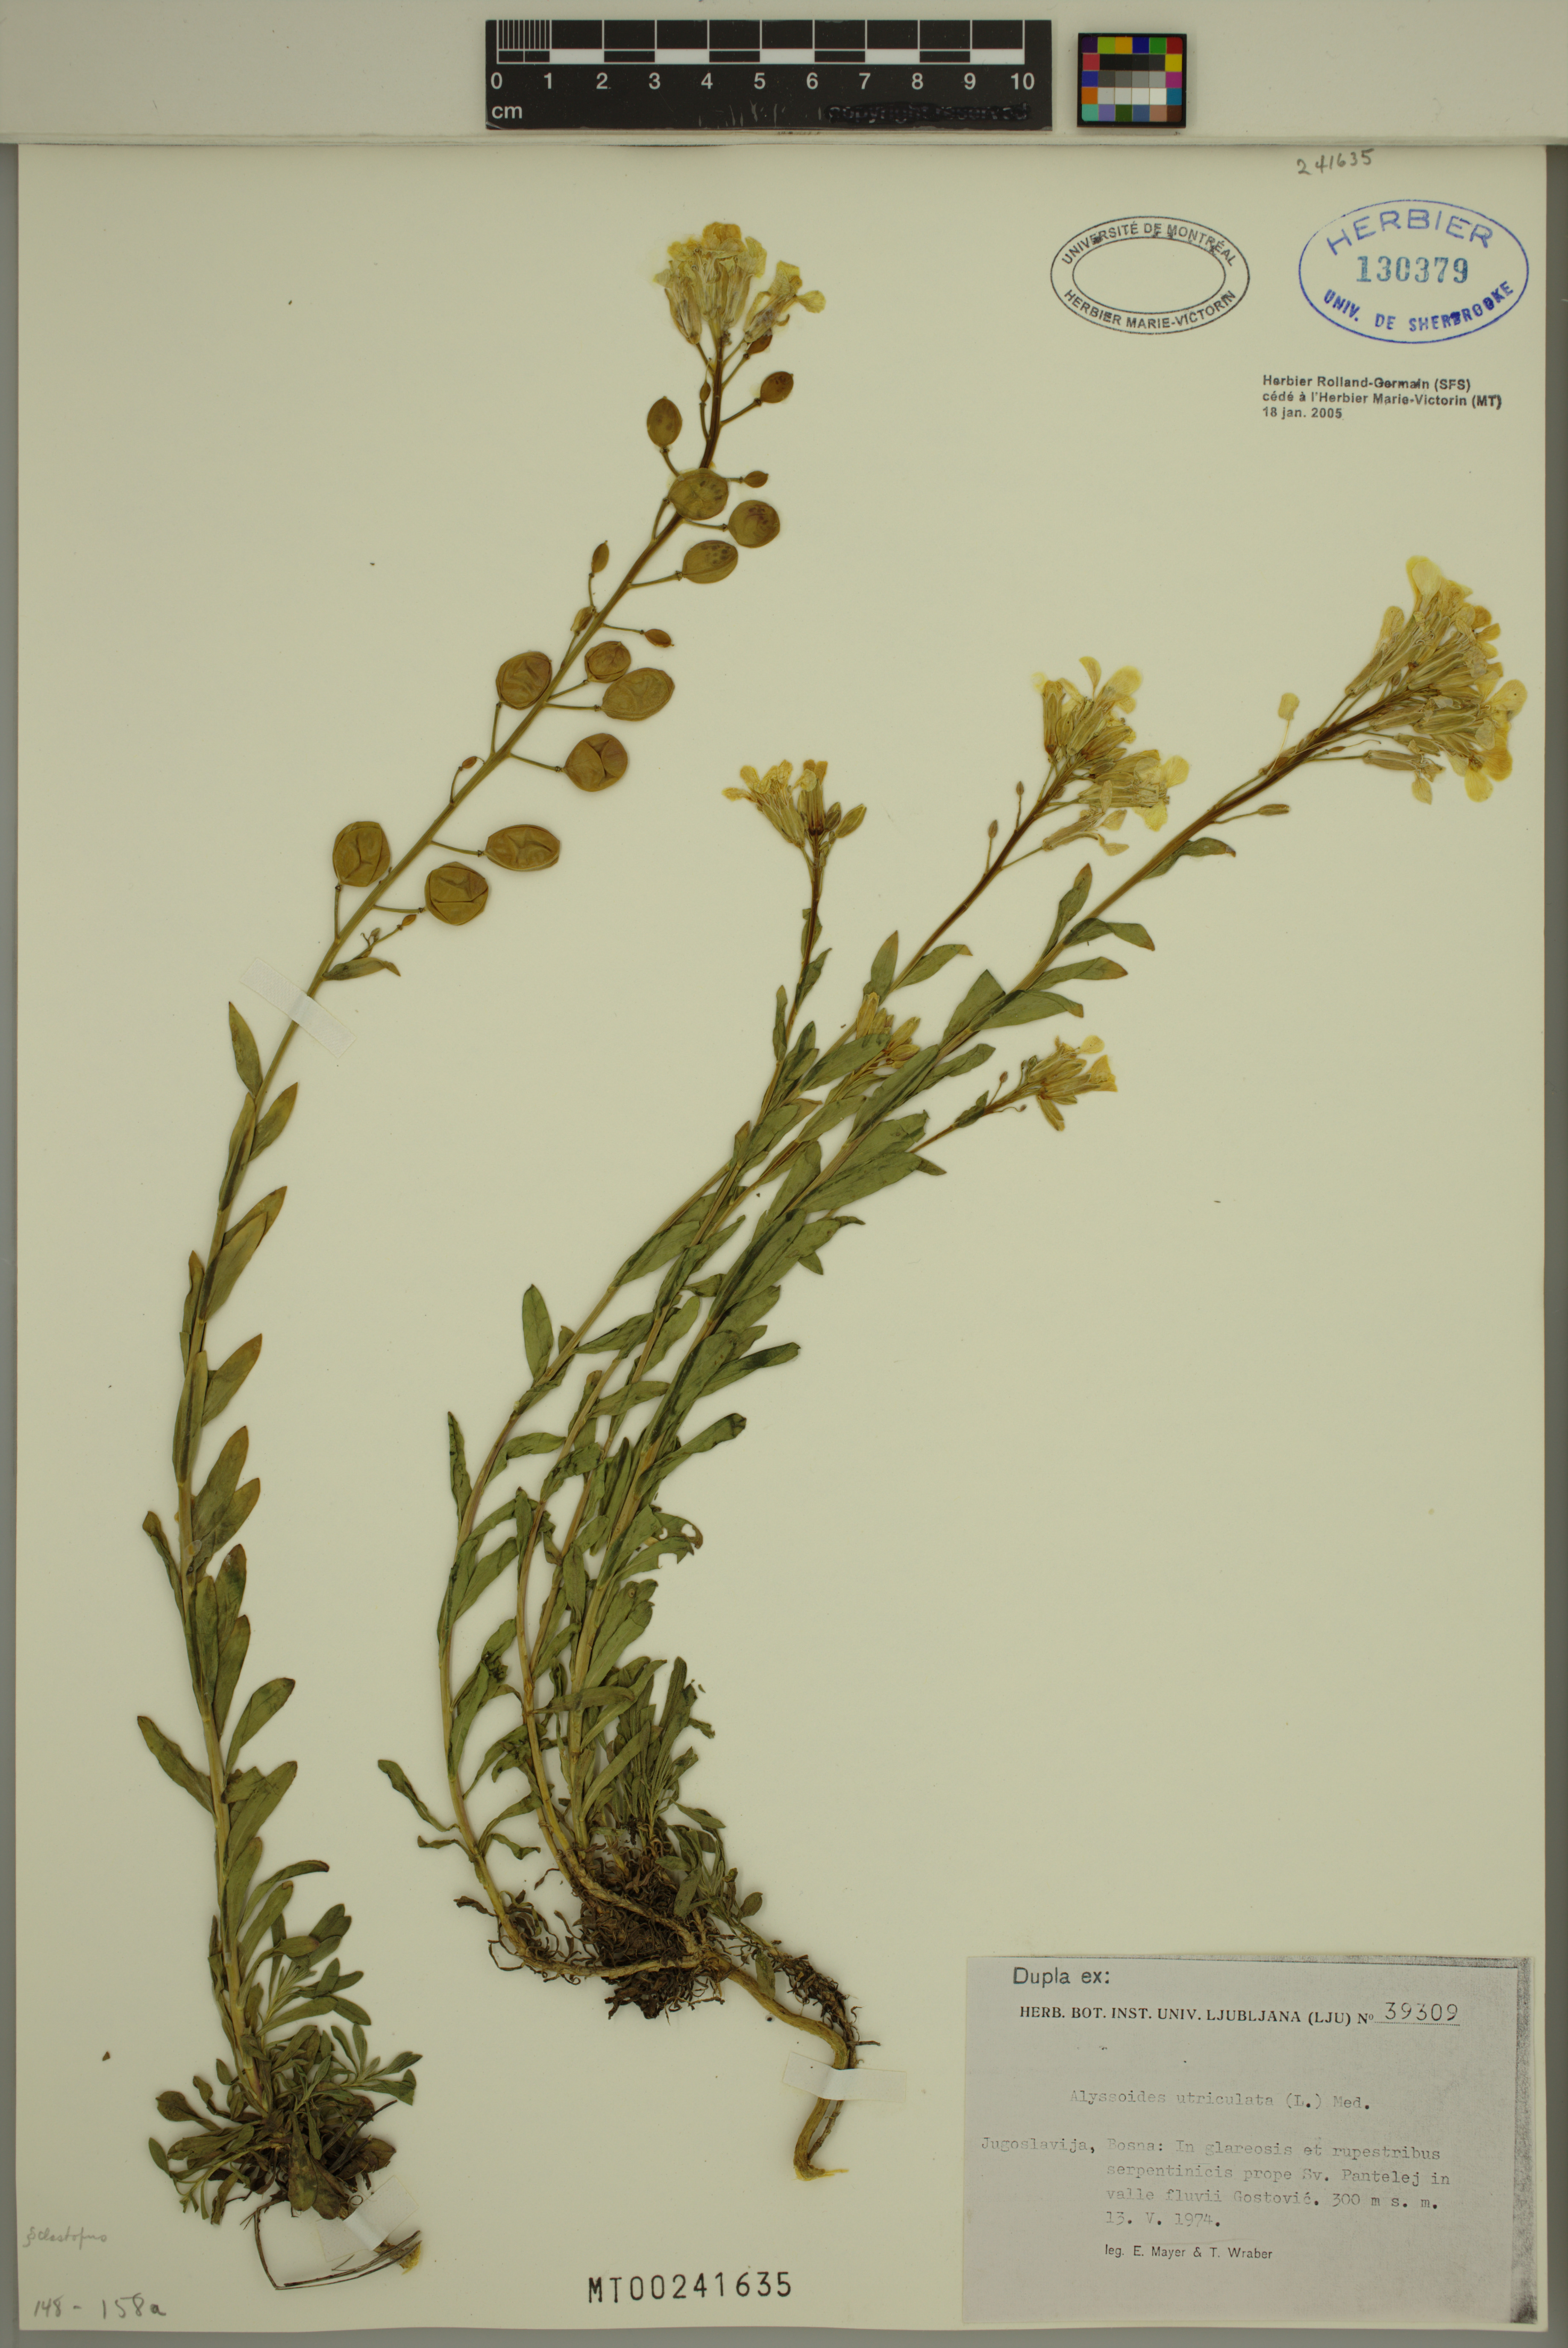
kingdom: Plantae
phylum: Tracheophyta
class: Magnoliopsida
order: Brassicales
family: Brassicaceae
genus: Alyssoides
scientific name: Alyssoides utriculata
